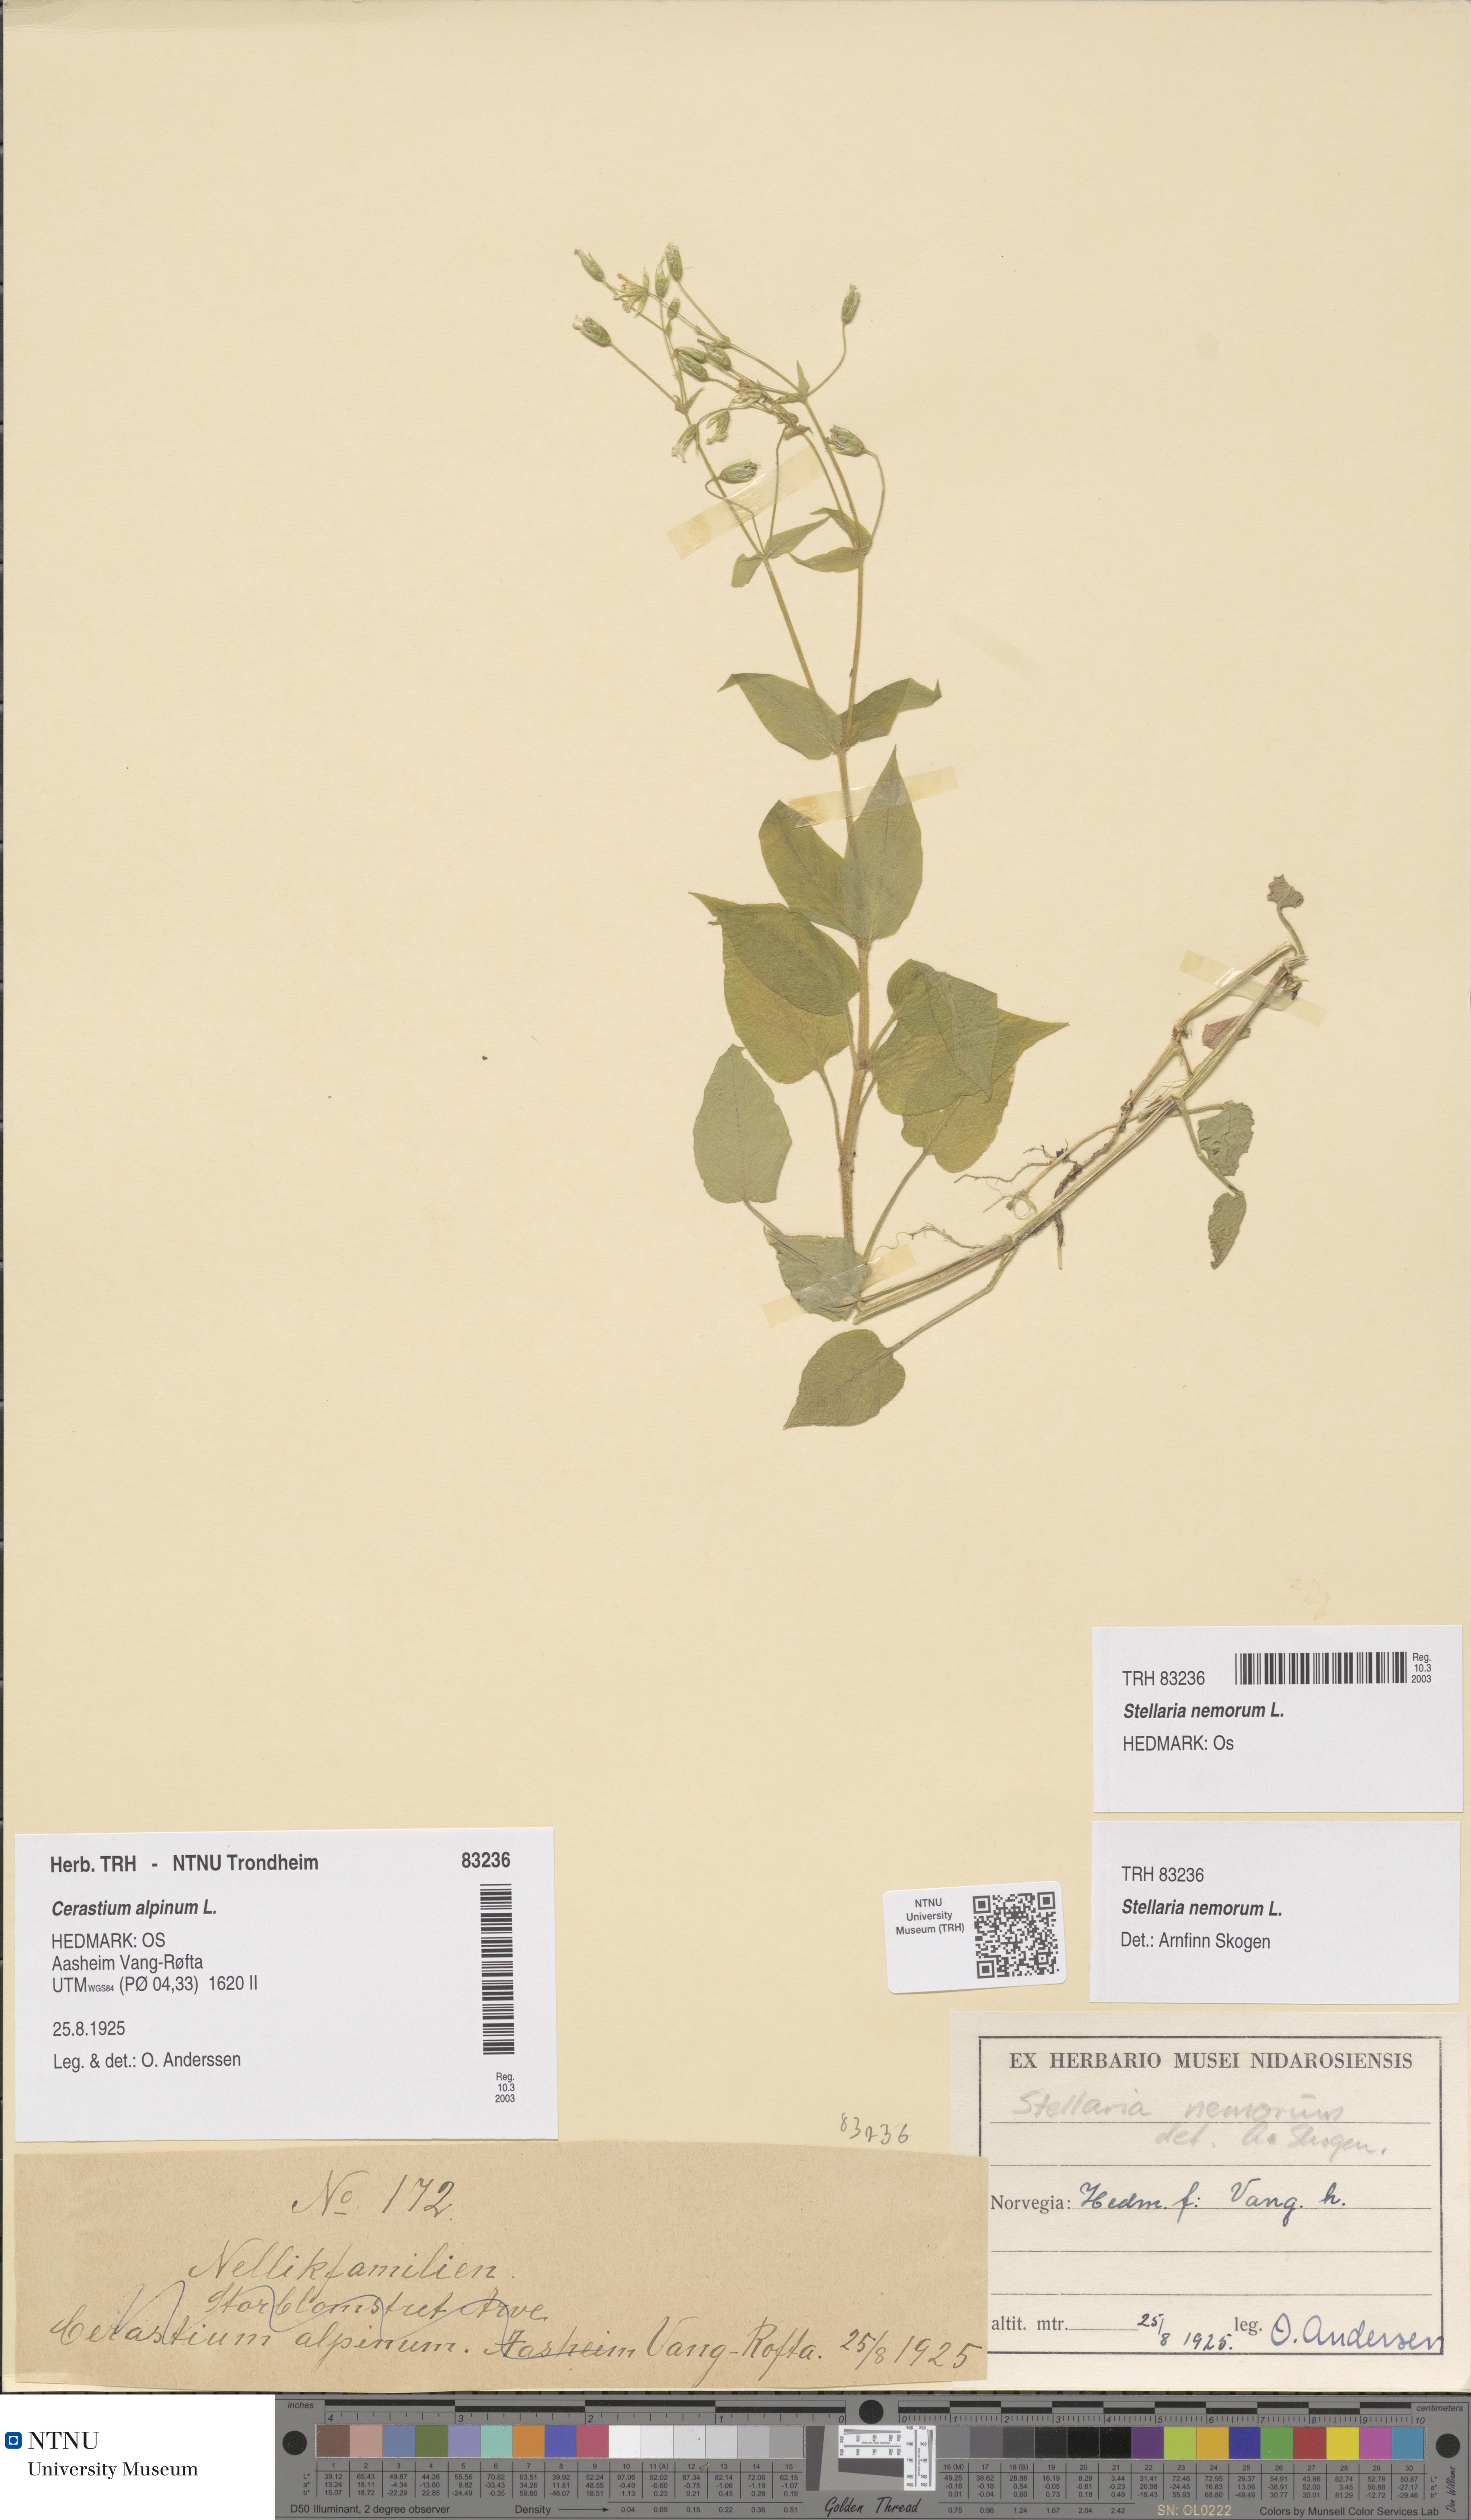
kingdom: Plantae
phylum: Tracheophyta
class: Magnoliopsida
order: Caryophyllales
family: Caryophyllaceae
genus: Stellaria
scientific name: Stellaria nemorum
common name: Wood stitchwort
